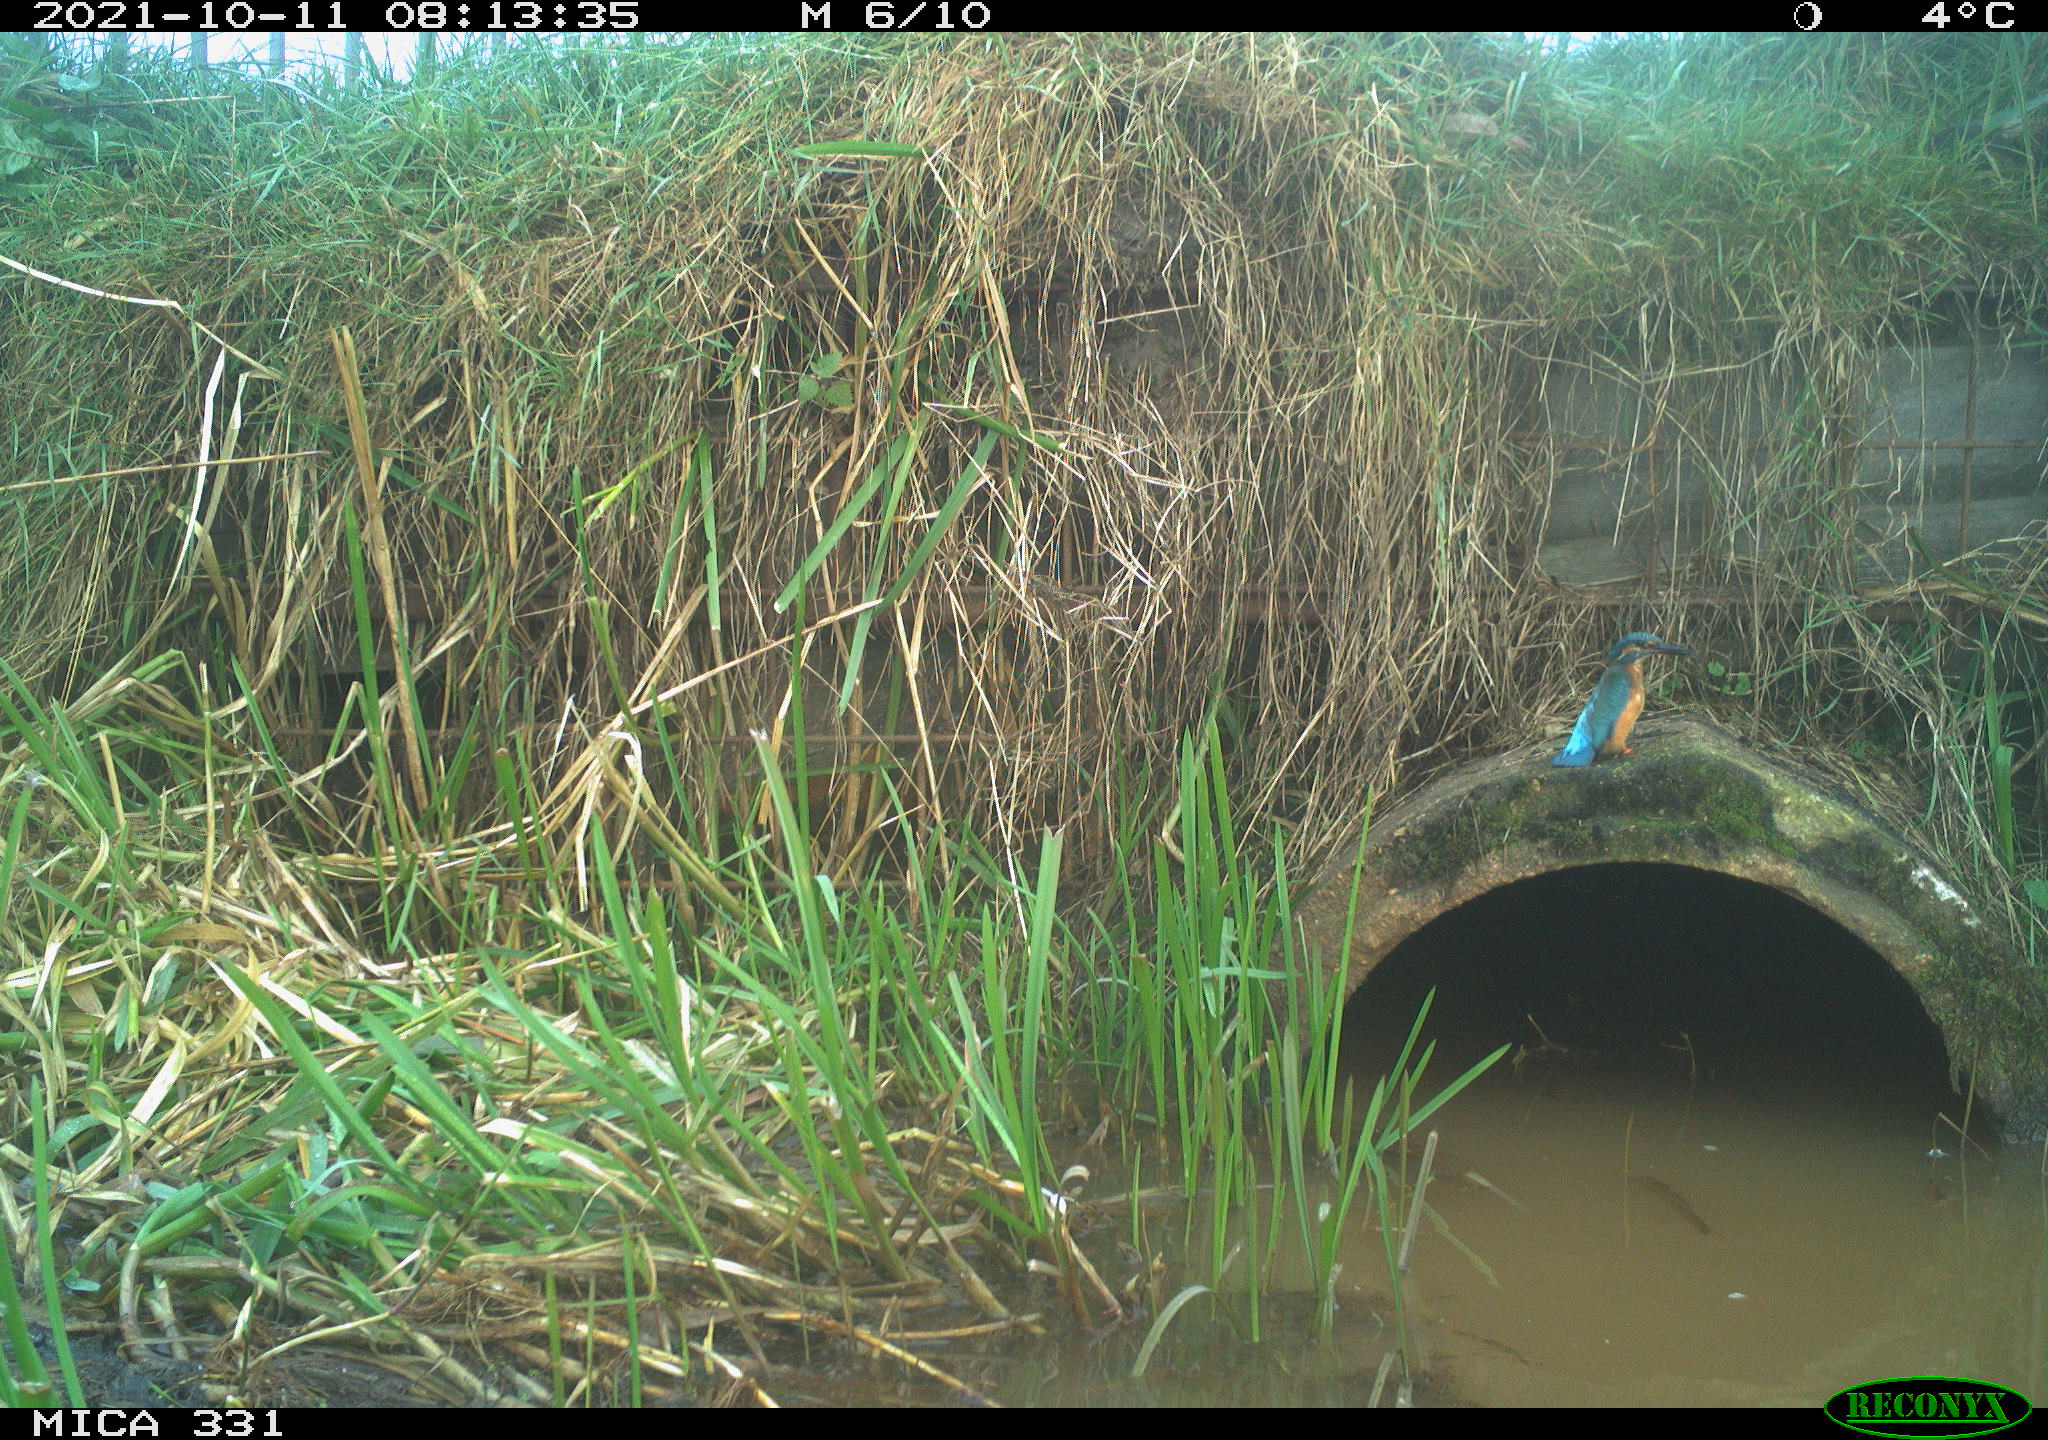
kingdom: Animalia
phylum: Chordata
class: Aves
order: Coraciiformes
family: Alcedinidae
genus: Alcedo
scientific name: Alcedo atthis
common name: Common kingfisher
